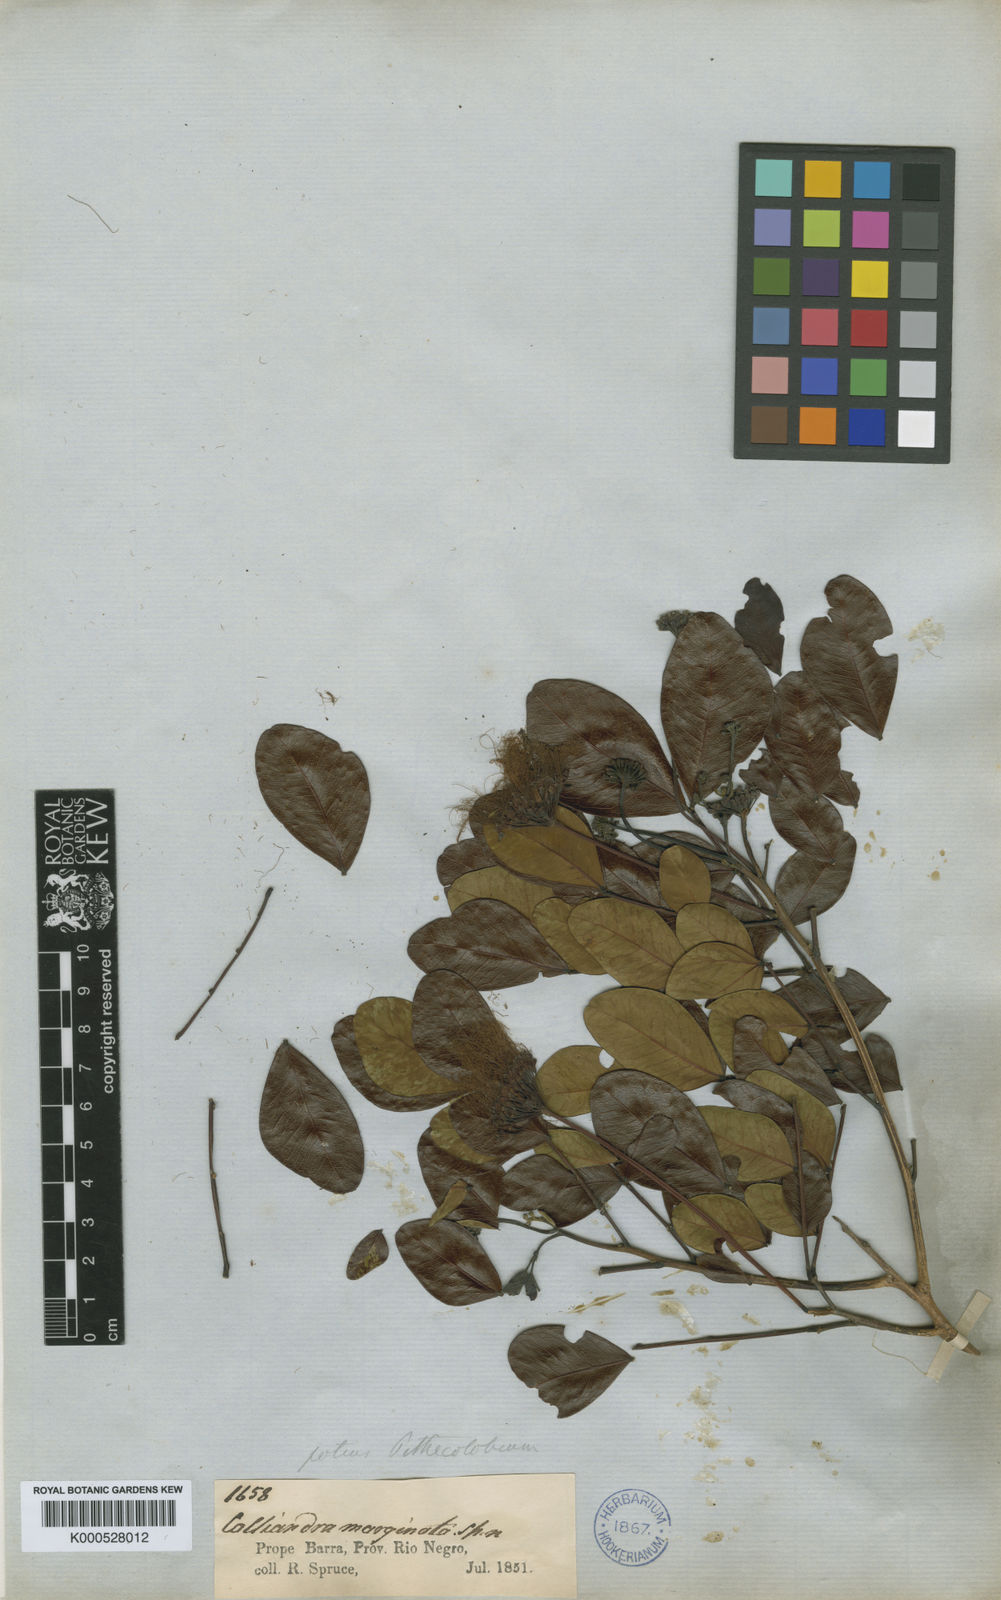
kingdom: Plantae
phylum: Tracheophyta
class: Magnoliopsida
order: Fabales
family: Fabaceae
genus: Hydrochorea
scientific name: Hydrochorea marginata
